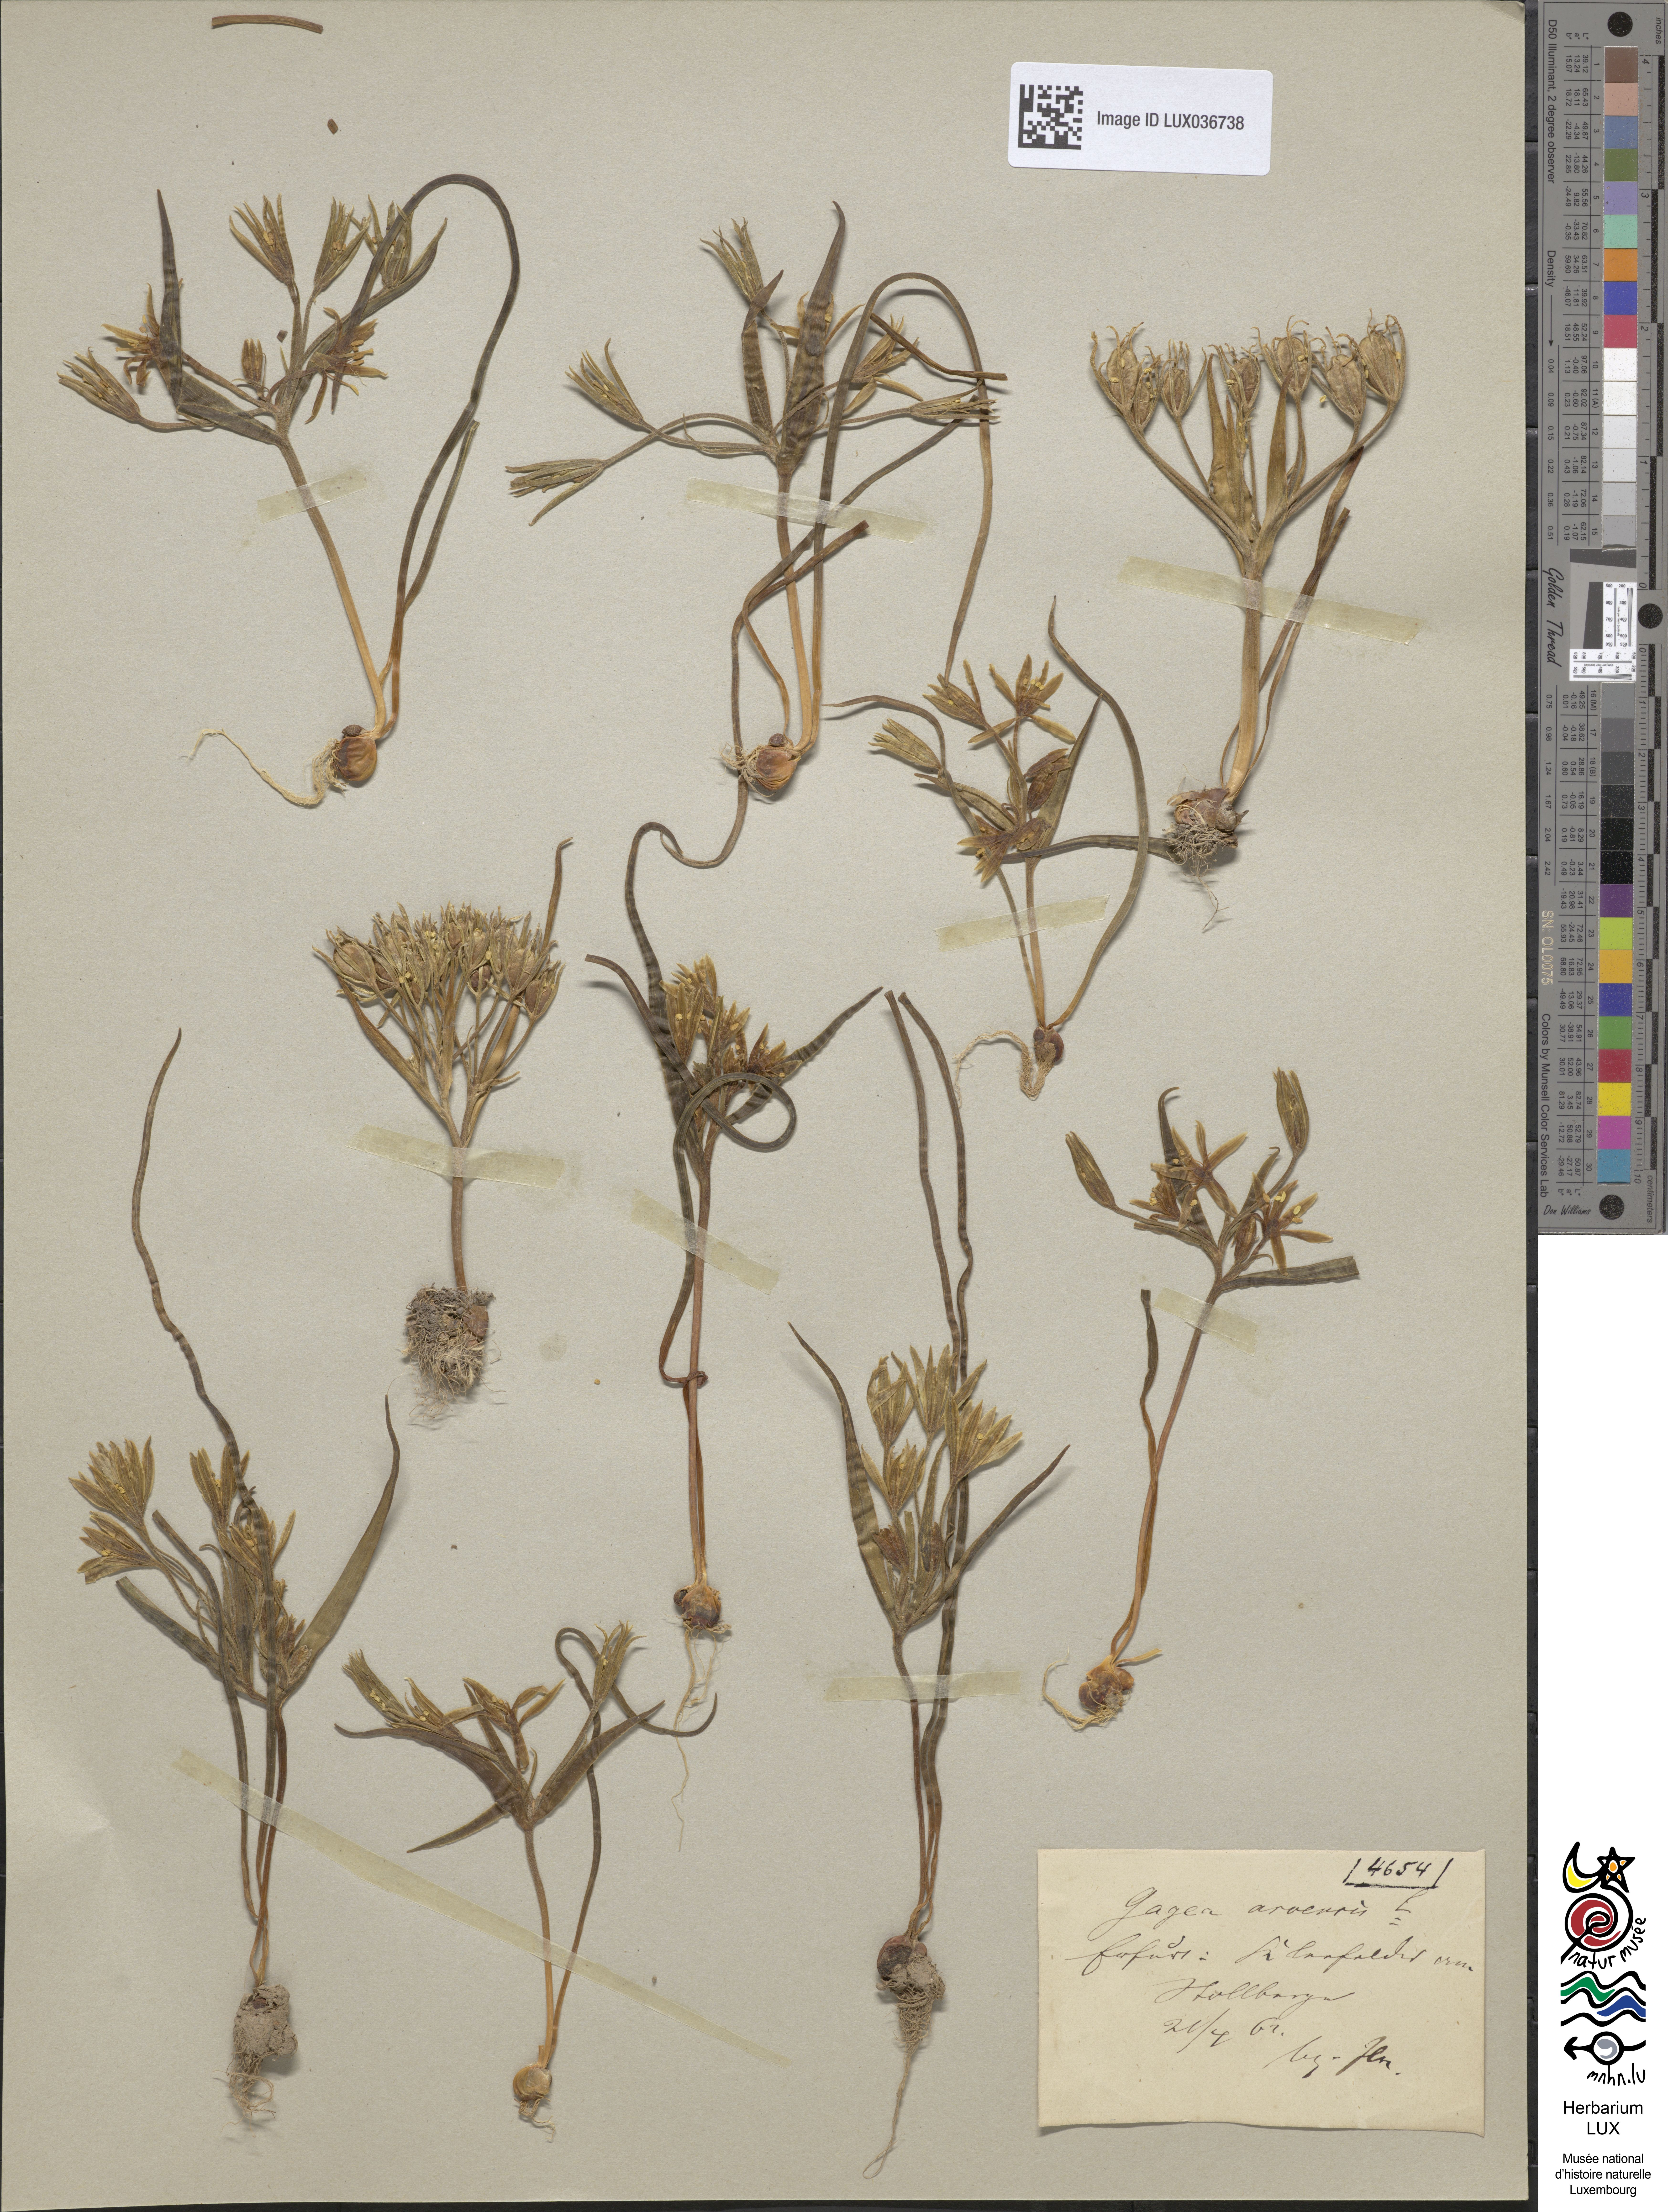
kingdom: Plantae
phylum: Tracheophyta
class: Liliopsida
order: Liliales
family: Liliaceae
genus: Gagea
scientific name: Gagea minima
